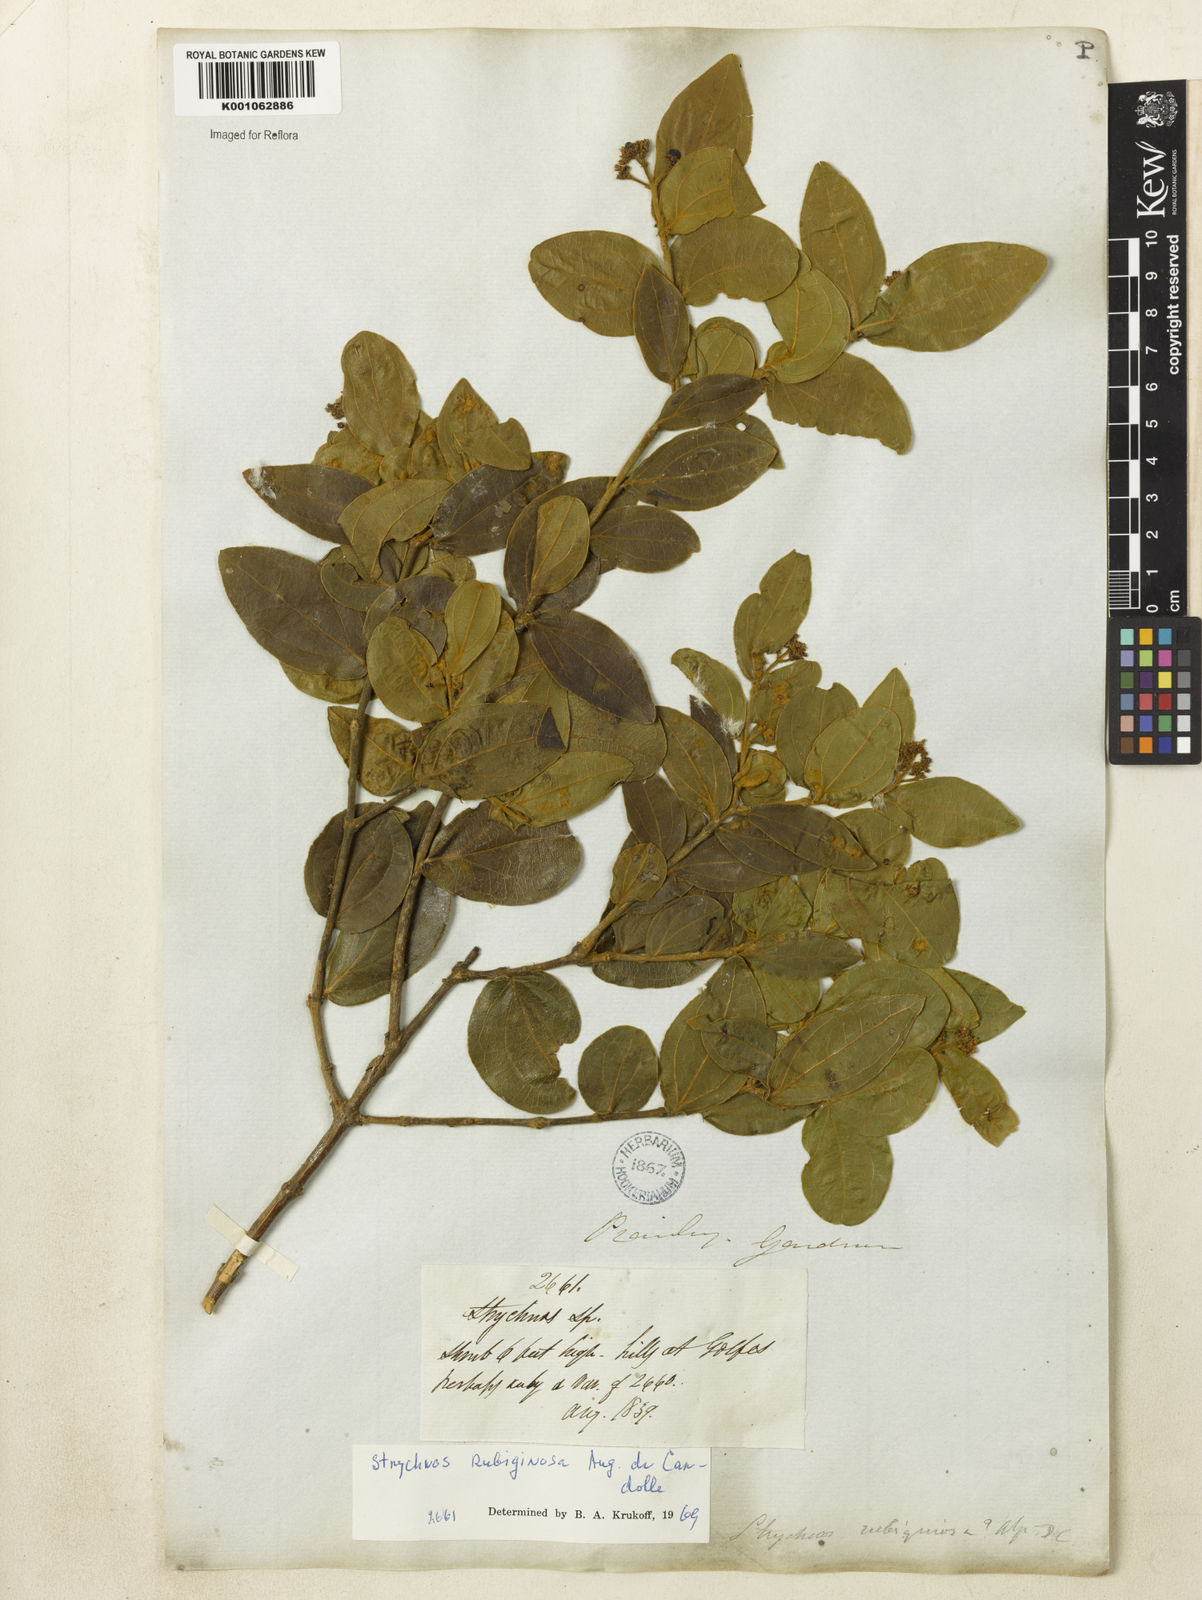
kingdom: Plantae
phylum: Tracheophyta
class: Magnoliopsida
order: Gentianales
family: Loganiaceae
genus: Strychnos
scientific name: Strychnos rubiginosa
